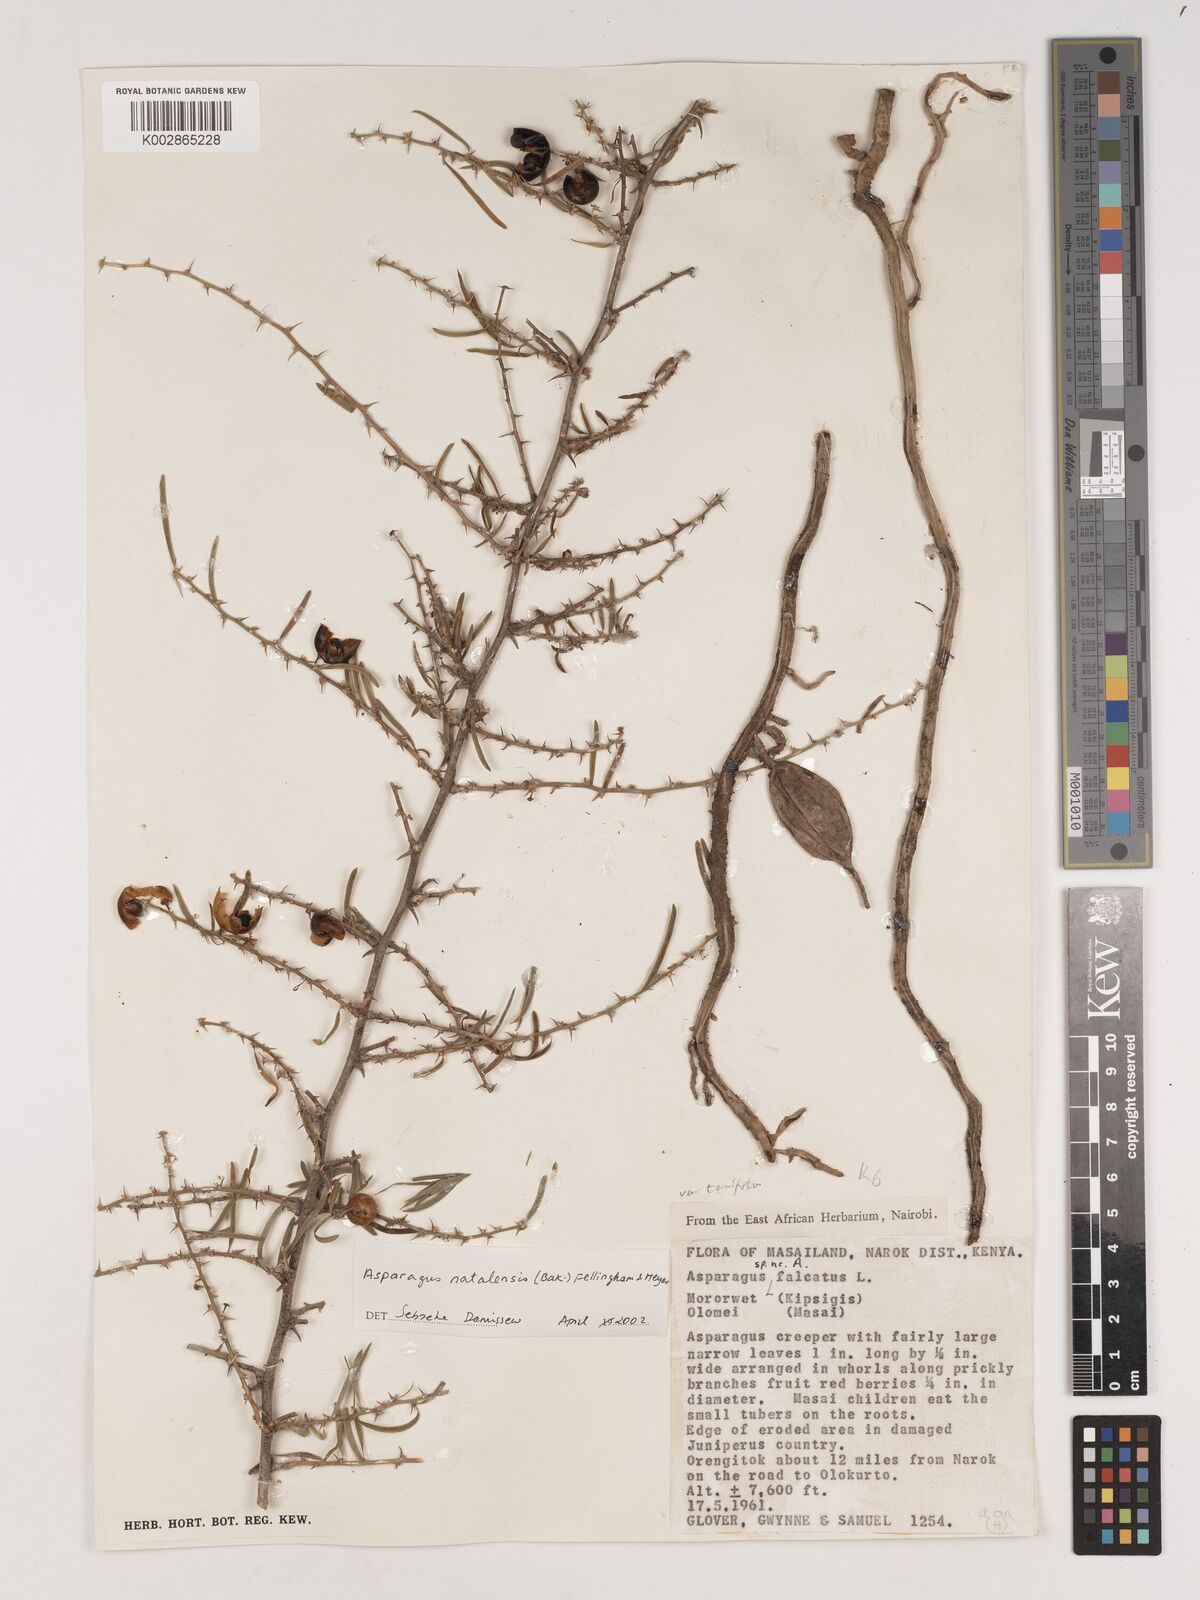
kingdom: Plantae
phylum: Tracheophyta
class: Liliopsida
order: Asparagales
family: Asparagaceae
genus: Asparagus
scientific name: Asparagus natalensis
